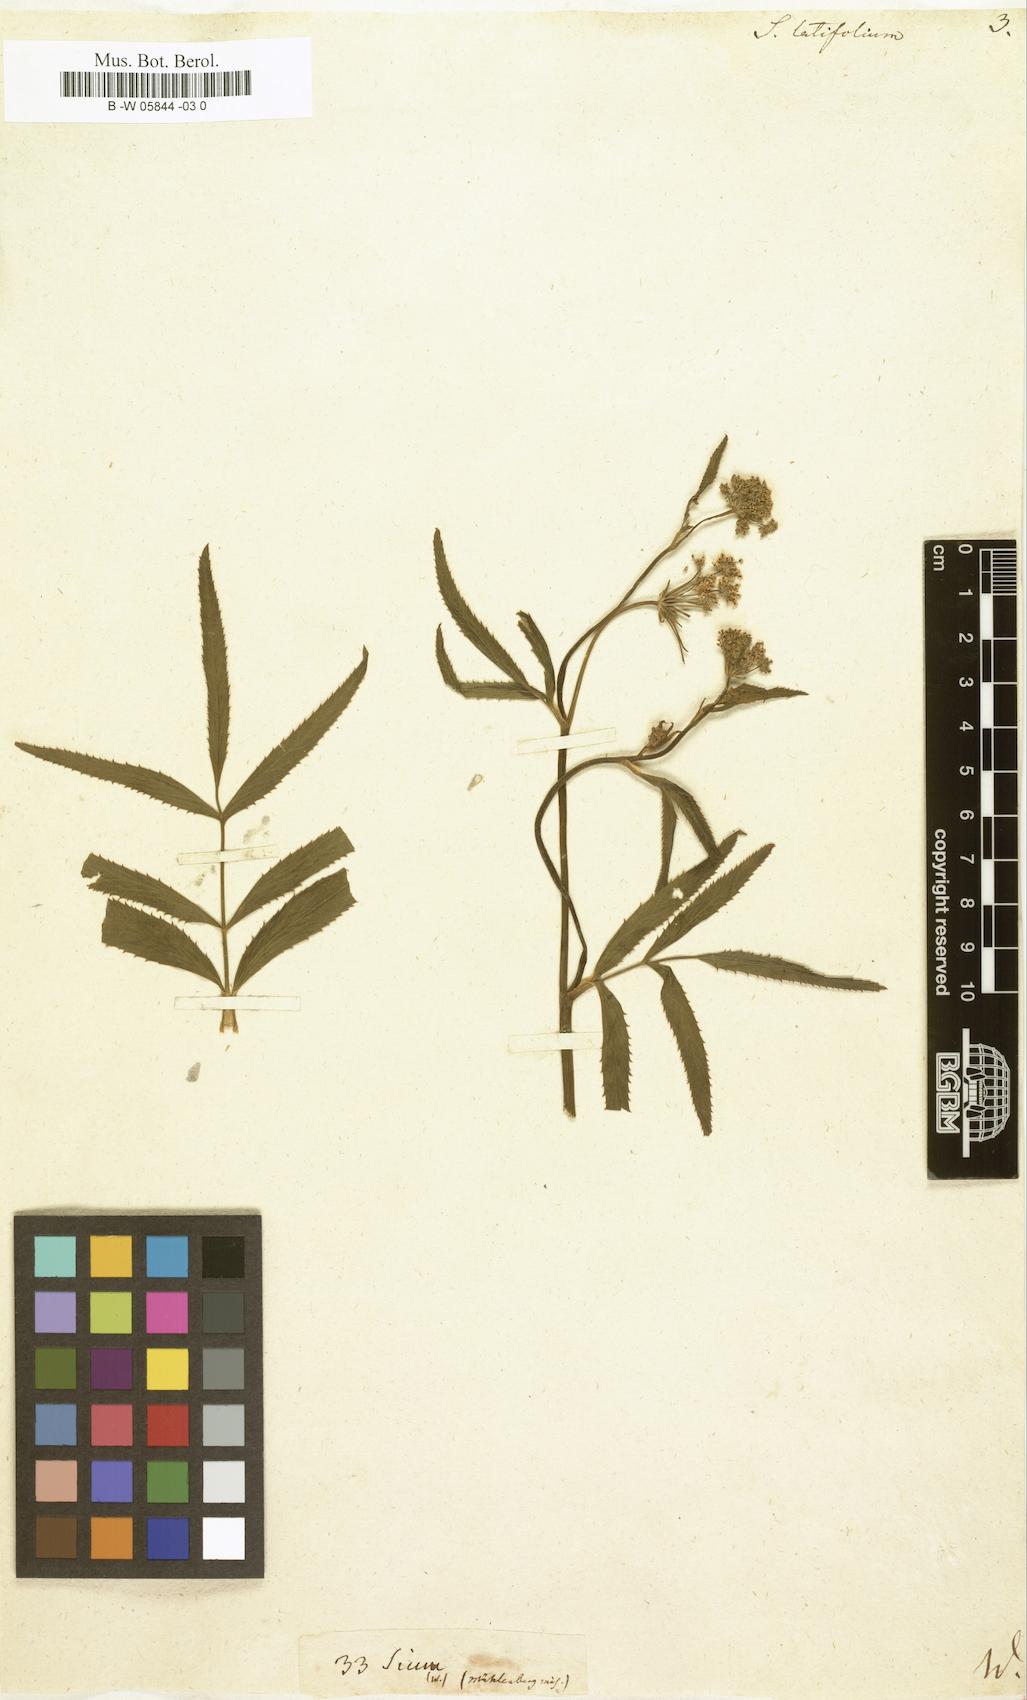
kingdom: Plantae
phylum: Tracheophyta
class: Magnoliopsida
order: Apiales
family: Apiaceae
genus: Sium
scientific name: Sium latifolium
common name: Greater water-parsnip
